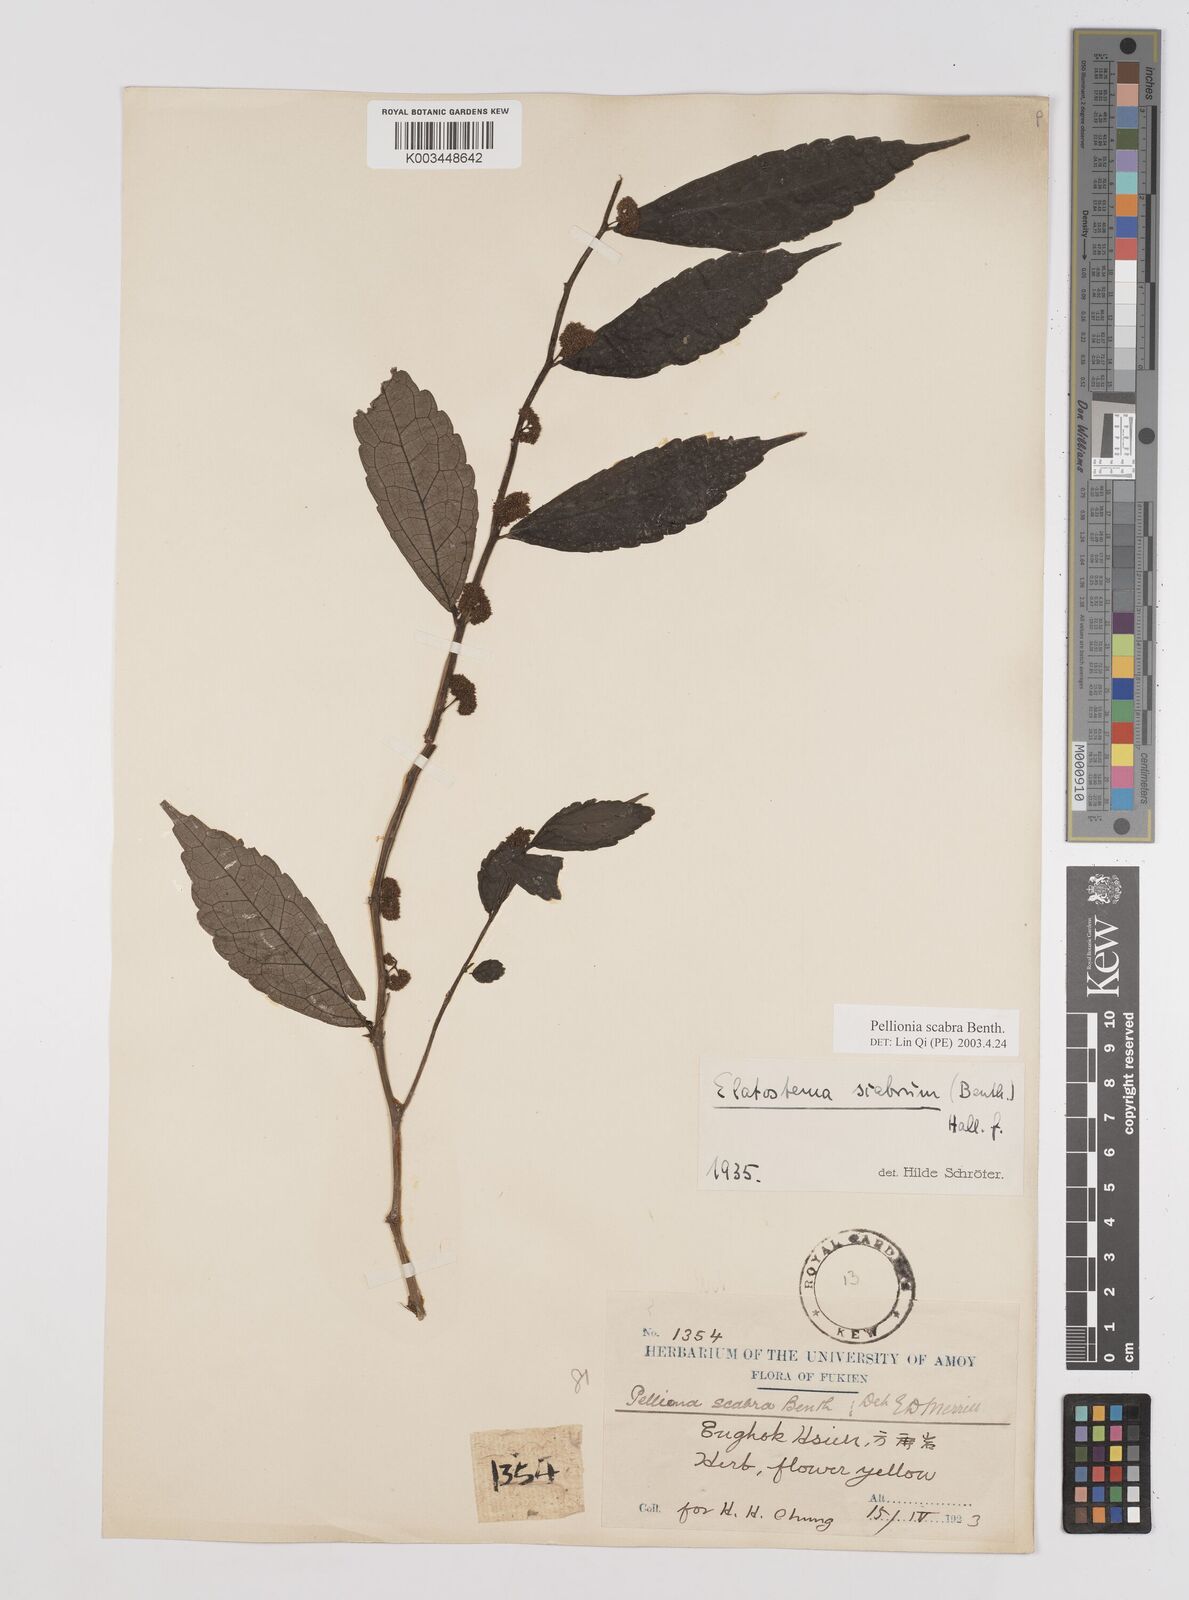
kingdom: Plantae
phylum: Tracheophyta
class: Magnoliopsida
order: Rosales
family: Urticaceae
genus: Elatostema
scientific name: Elatostema
